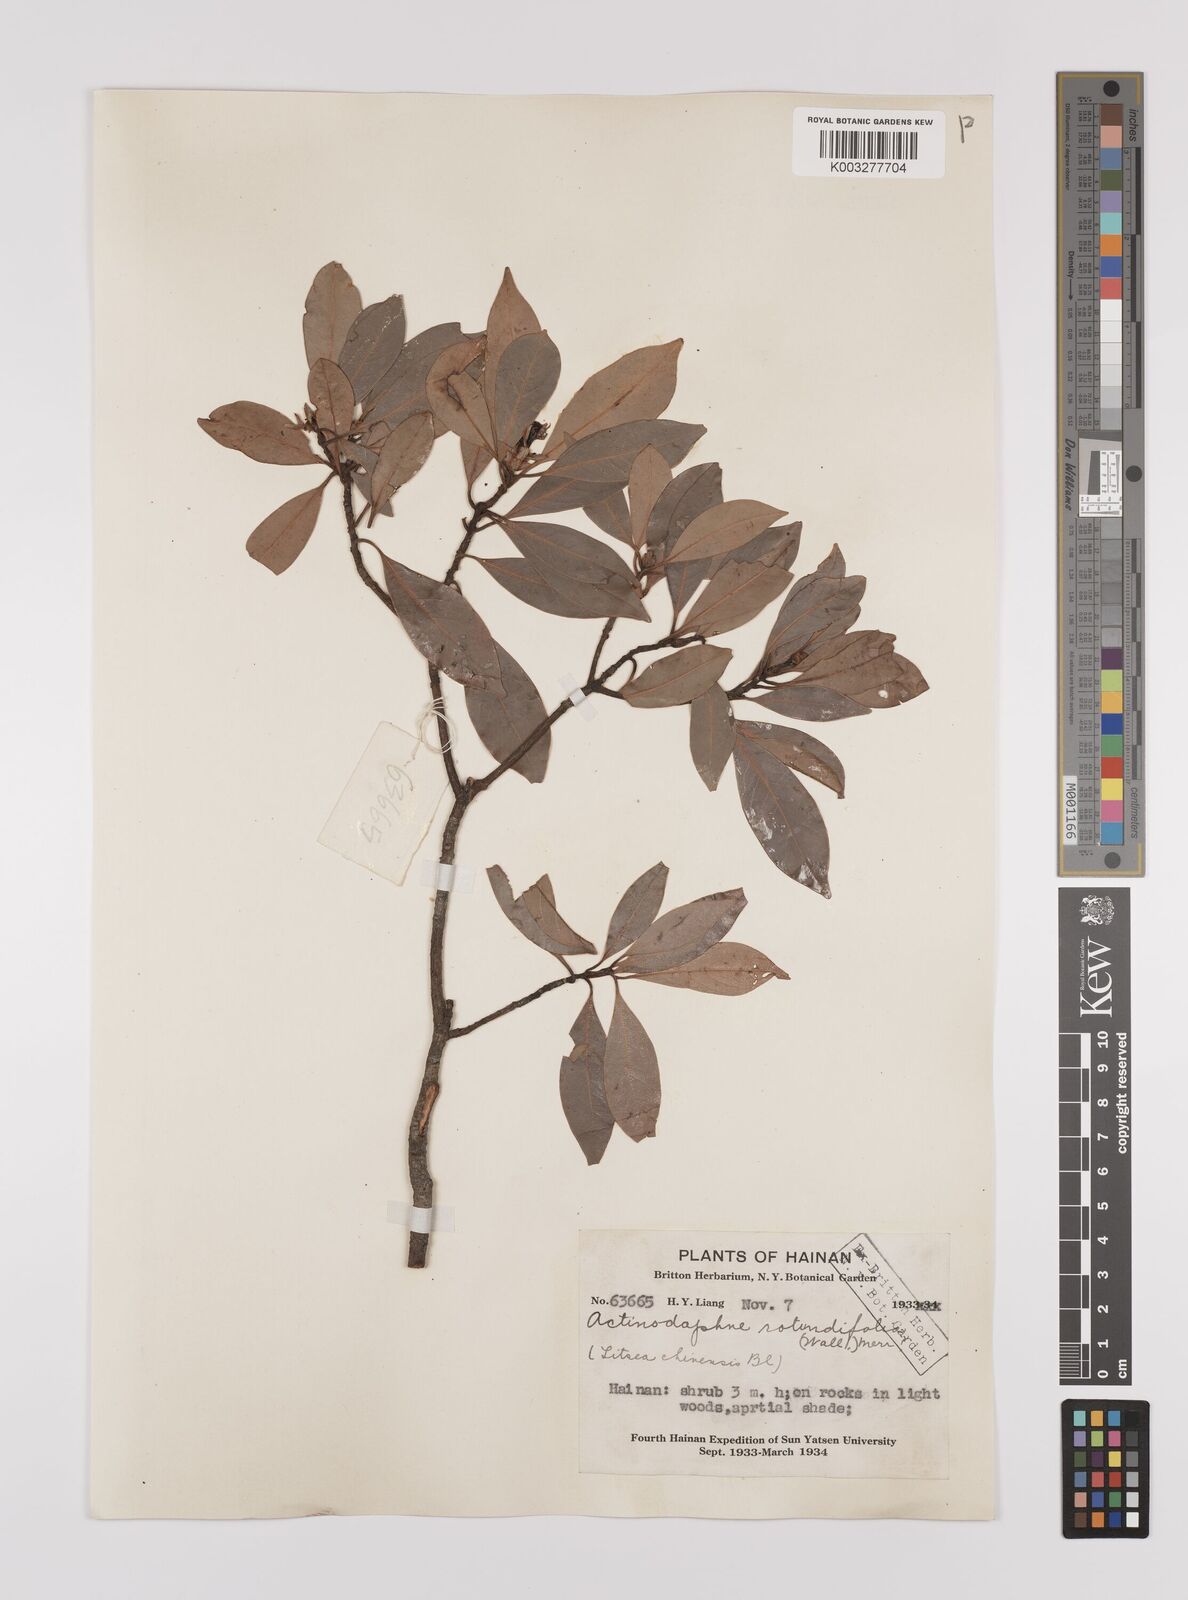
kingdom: Plantae
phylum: Tracheophyta
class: Magnoliopsida
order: Laurales
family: Lauraceae
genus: Litsea
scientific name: Litsea rotundifolia
